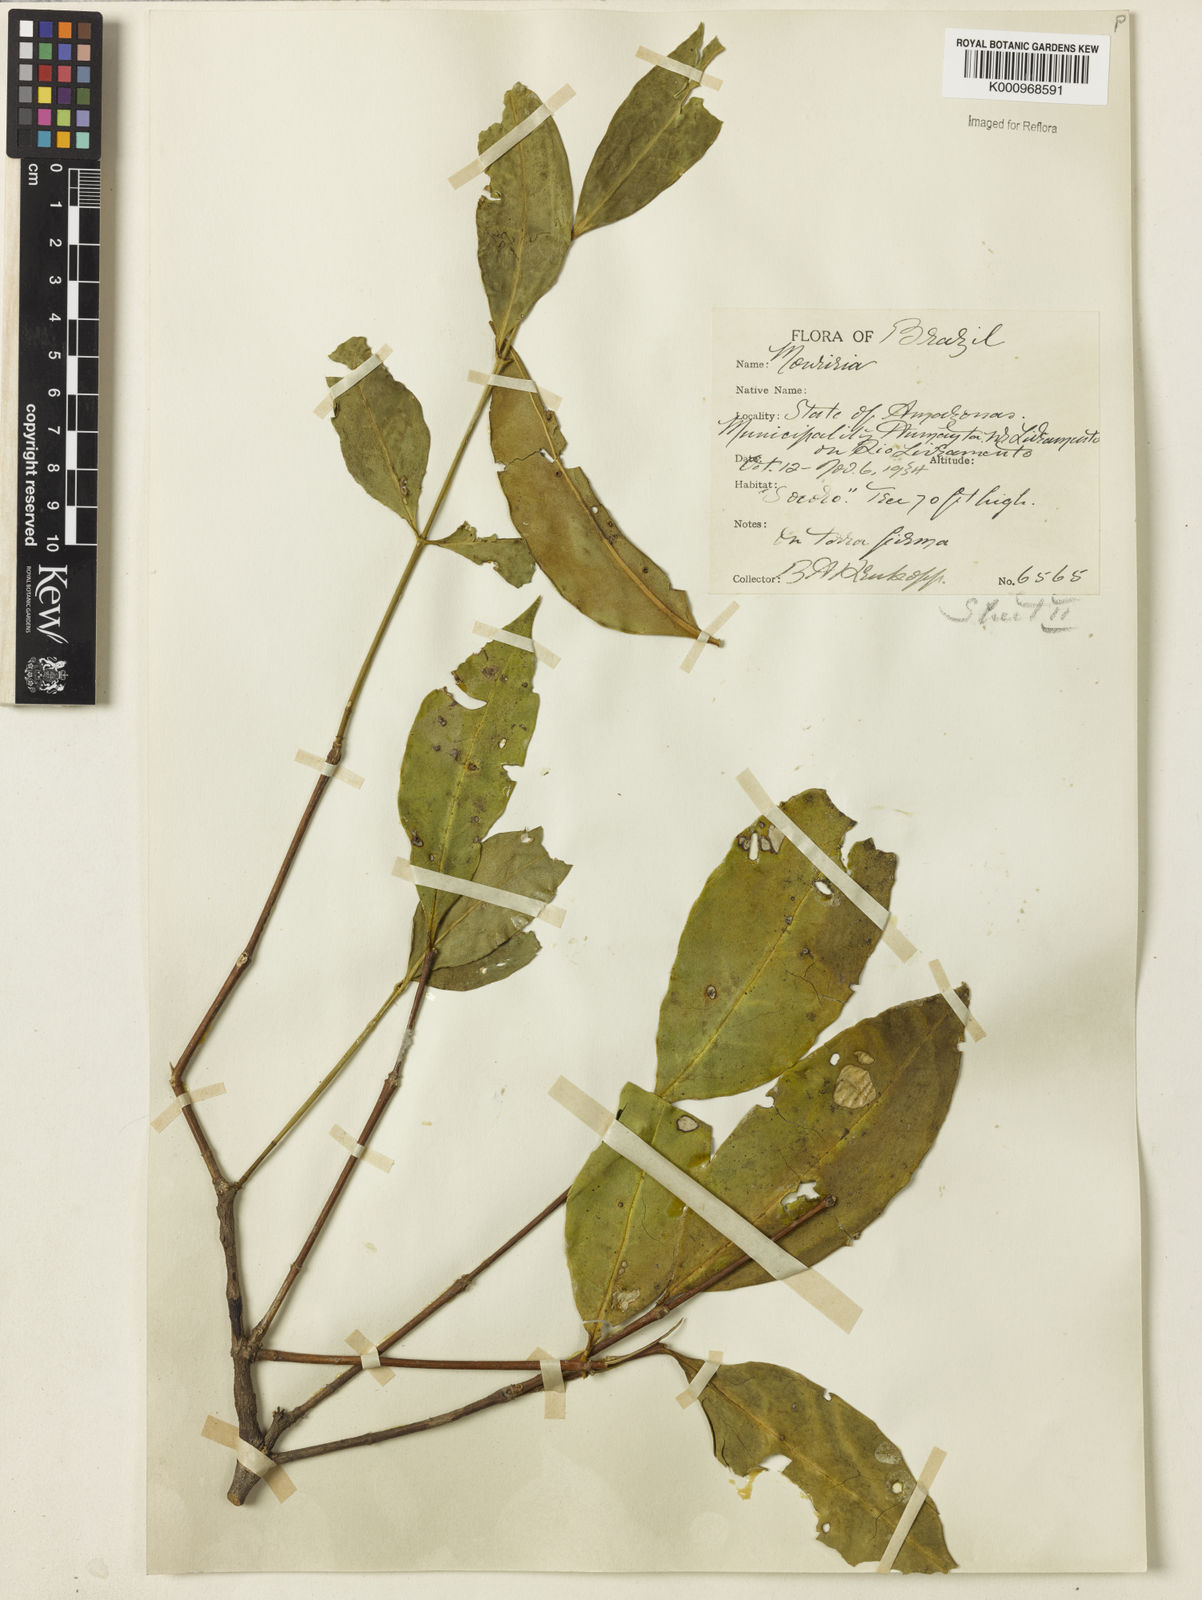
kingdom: Plantae
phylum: Tracheophyta
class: Magnoliopsida
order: Myrtales
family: Melastomataceae
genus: Mouriri
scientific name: Mouriri acutiflora
